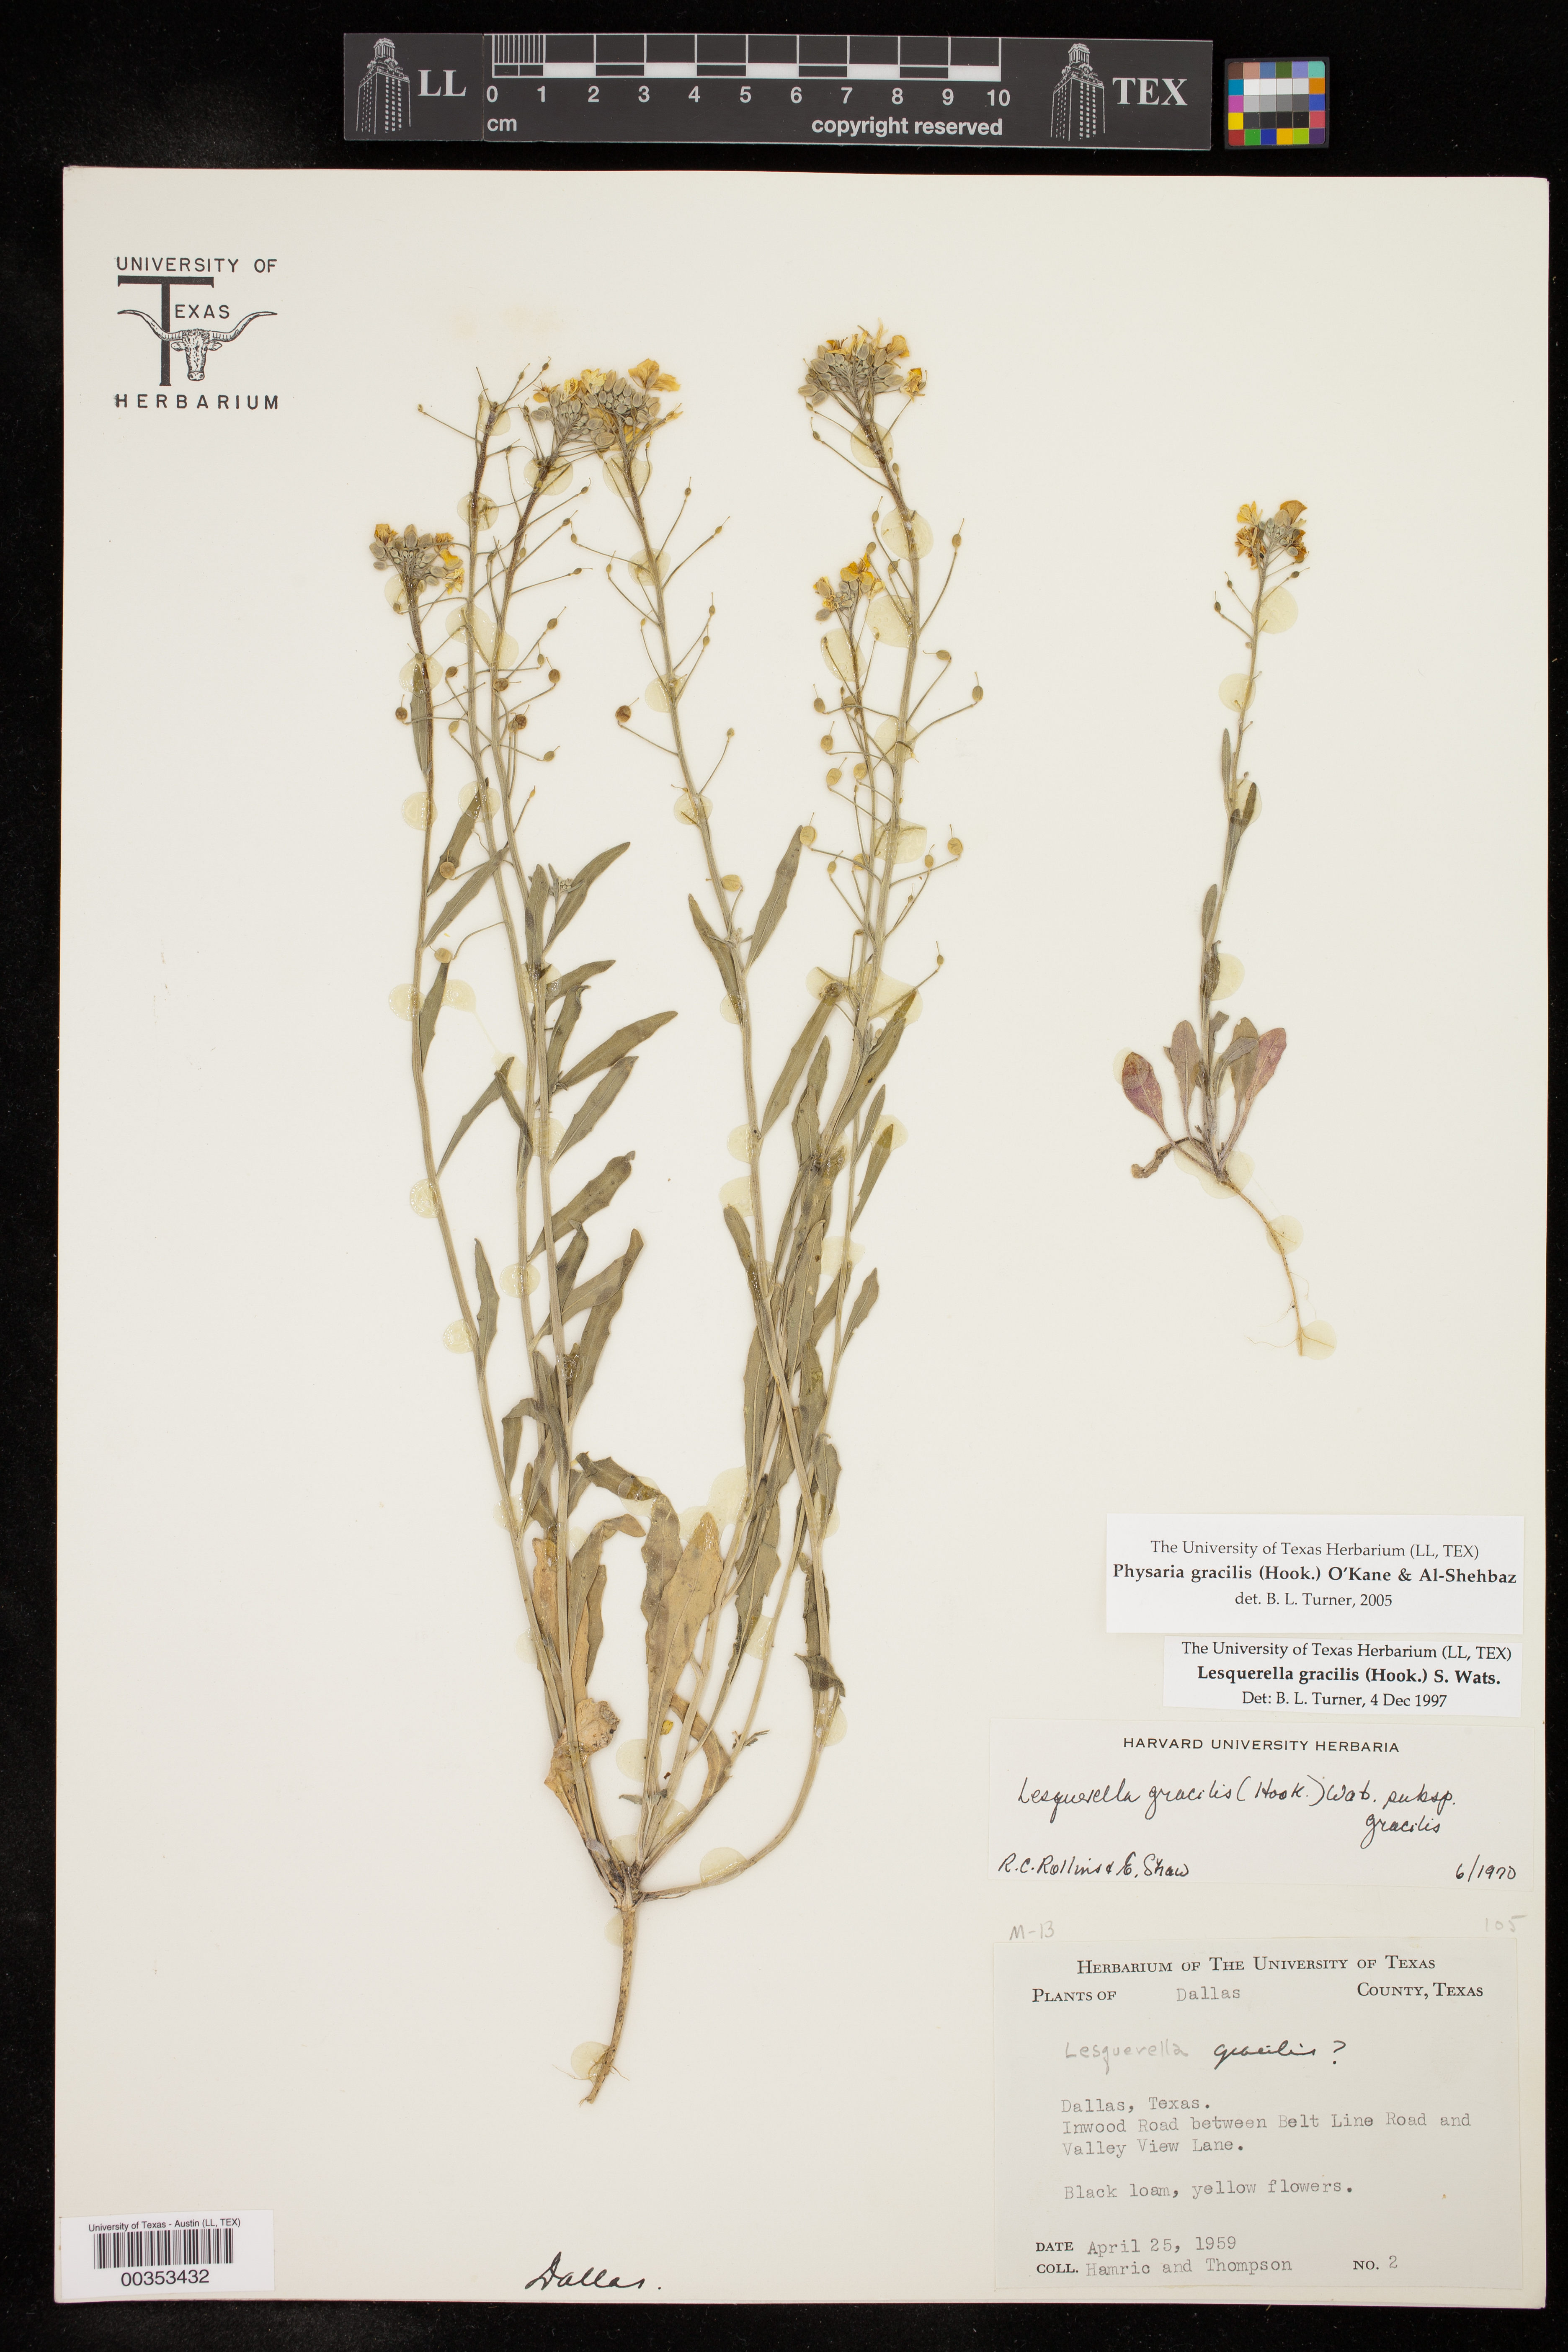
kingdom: Plantae
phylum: Tracheophyta
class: Magnoliopsida
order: Brassicales
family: Brassicaceae
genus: Physaria
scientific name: Physaria gracilis
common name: Spreading bladderpod
